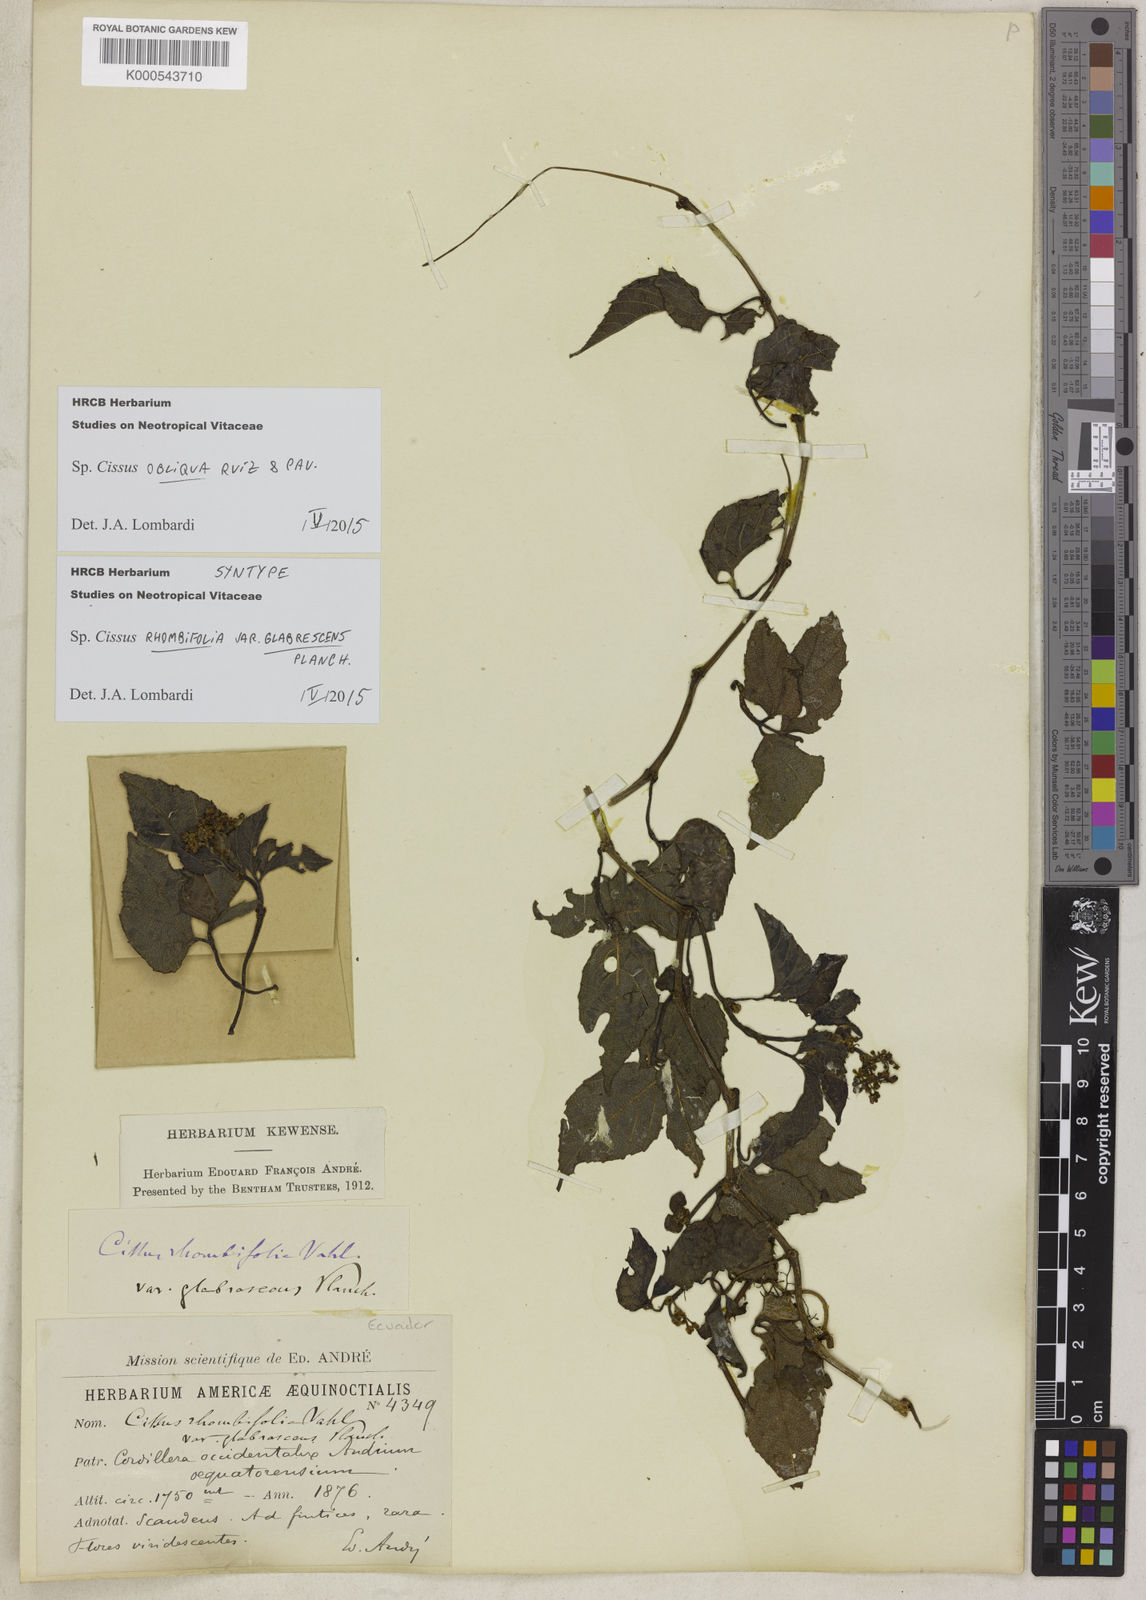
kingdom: Plantae
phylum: Tracheophyta
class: Magnoliopsida
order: Vitales
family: Vitaceae
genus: Cissus
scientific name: Cissus obliqua
